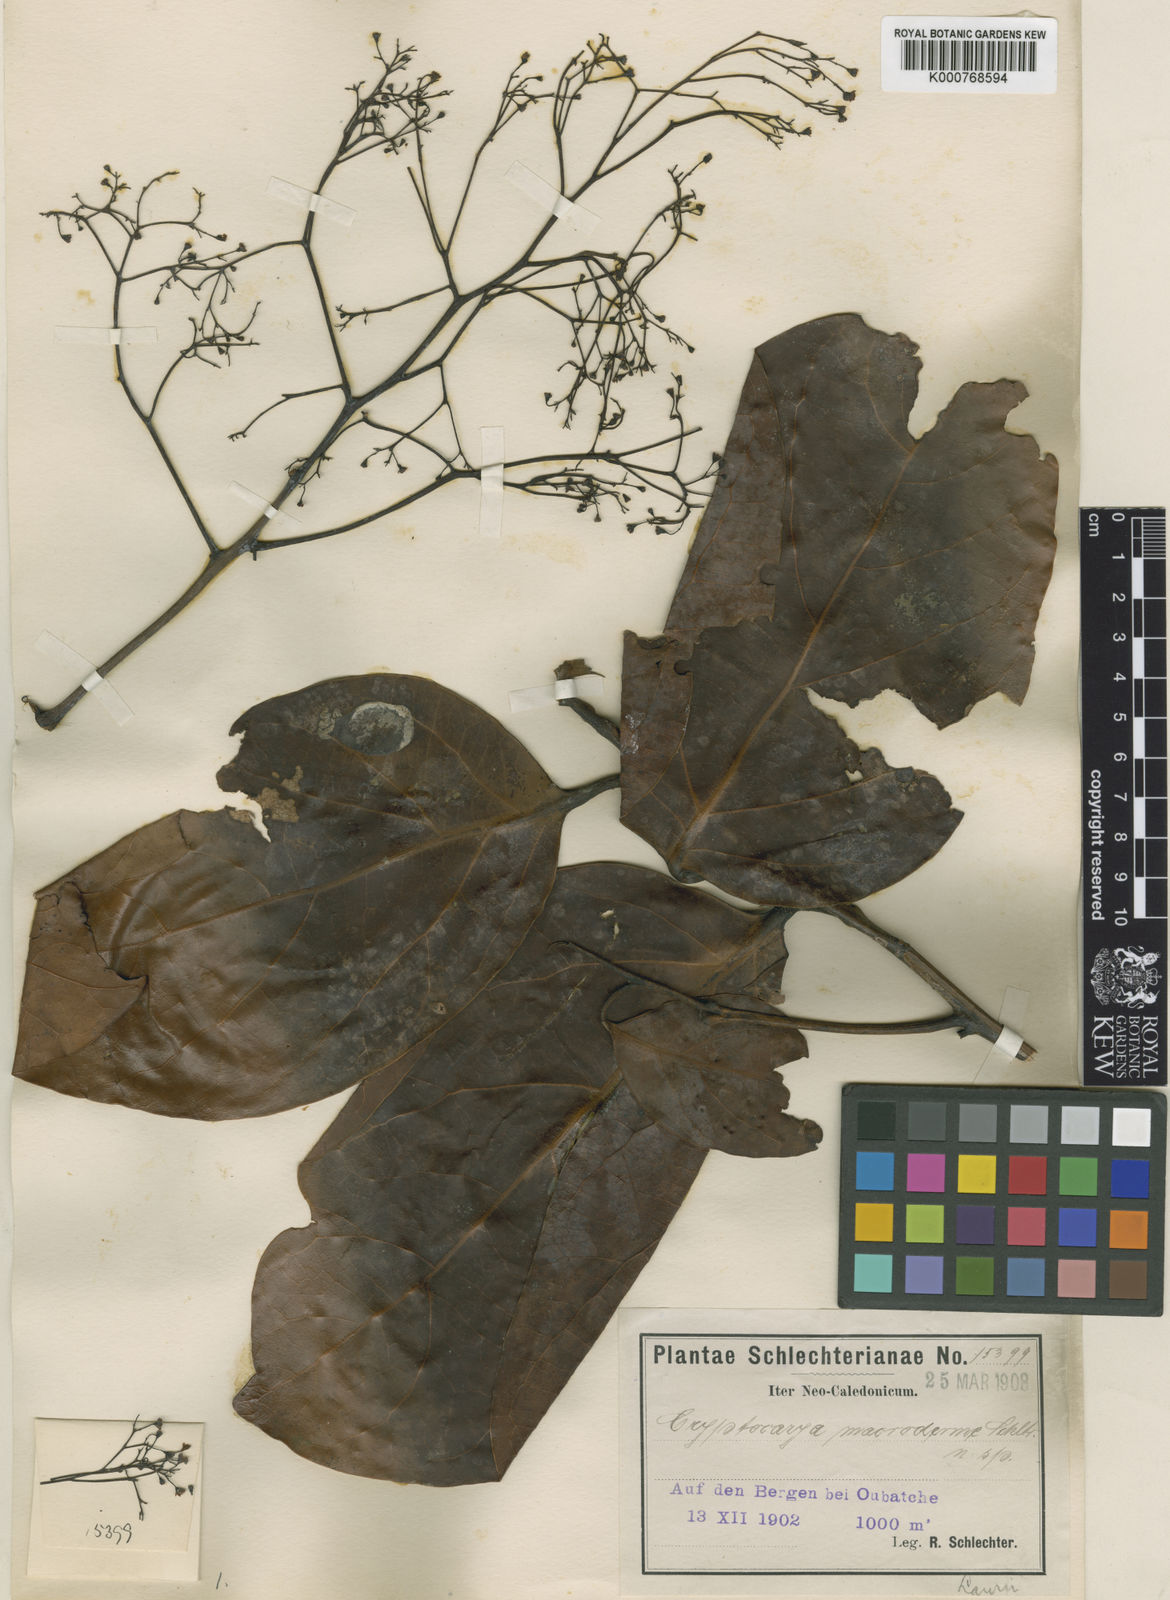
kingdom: Plantae
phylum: Tracheophyta
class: Magnoliopsida
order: Laurales
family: Lauraceae
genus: Cryptocarya
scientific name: Cryptocarya macrodesme
